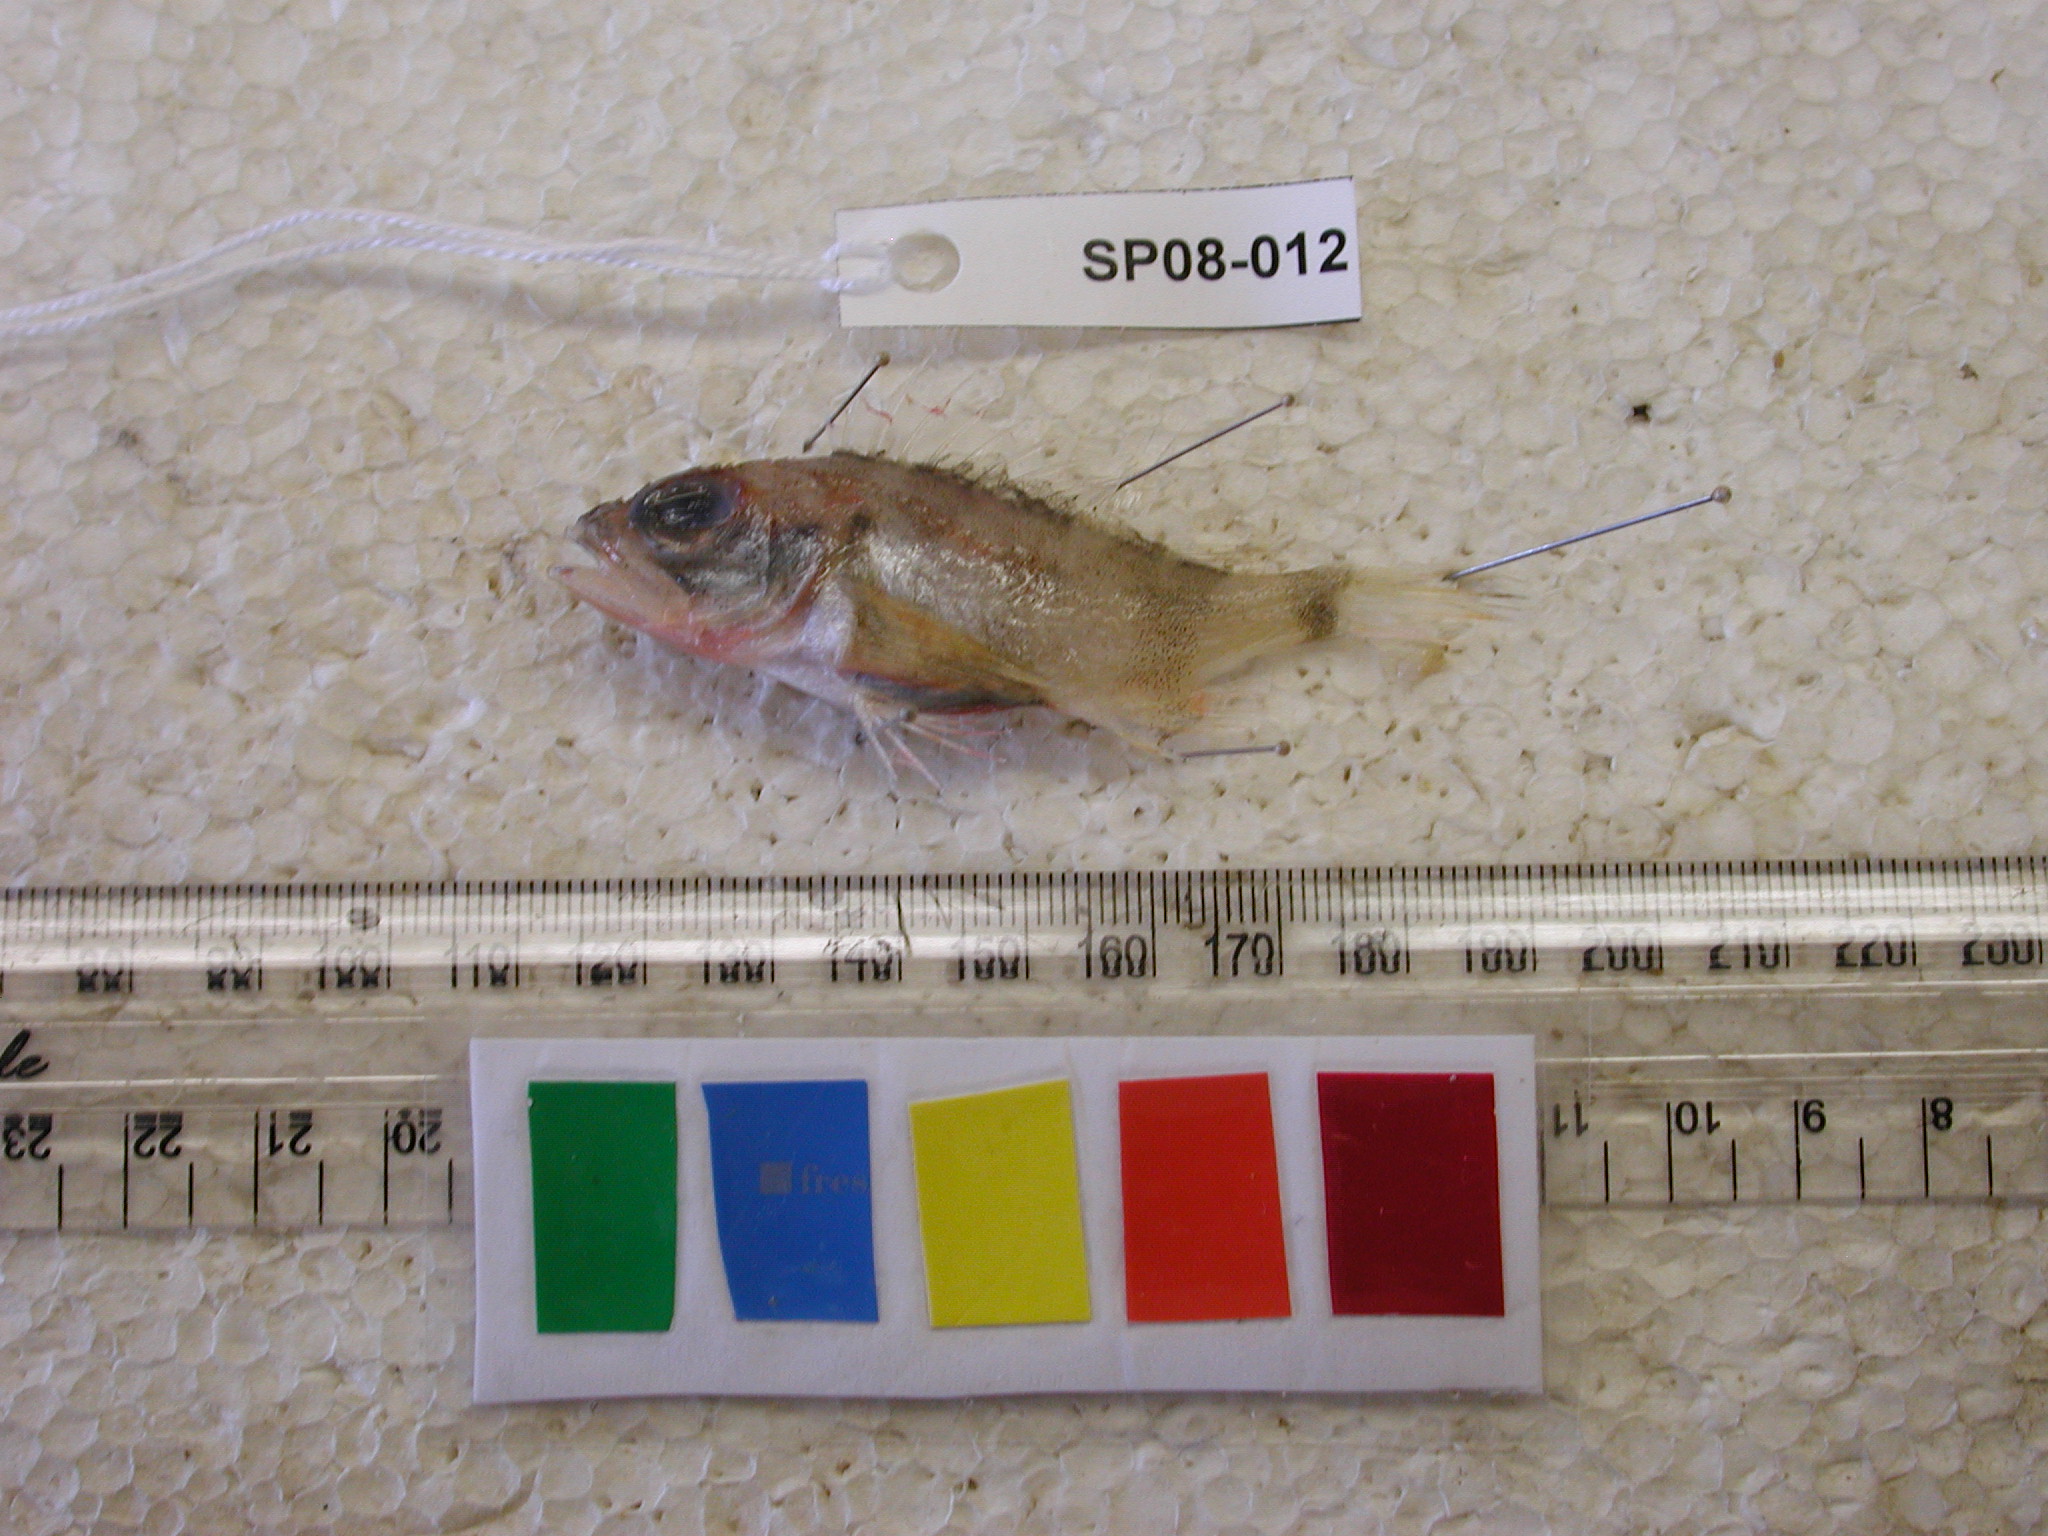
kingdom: Animalia
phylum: Chordata
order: Scorpaeniformes
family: Sebastidae
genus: Helicolenus
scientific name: Helicolenus dactylopterus
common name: Blackbelly rosefish
